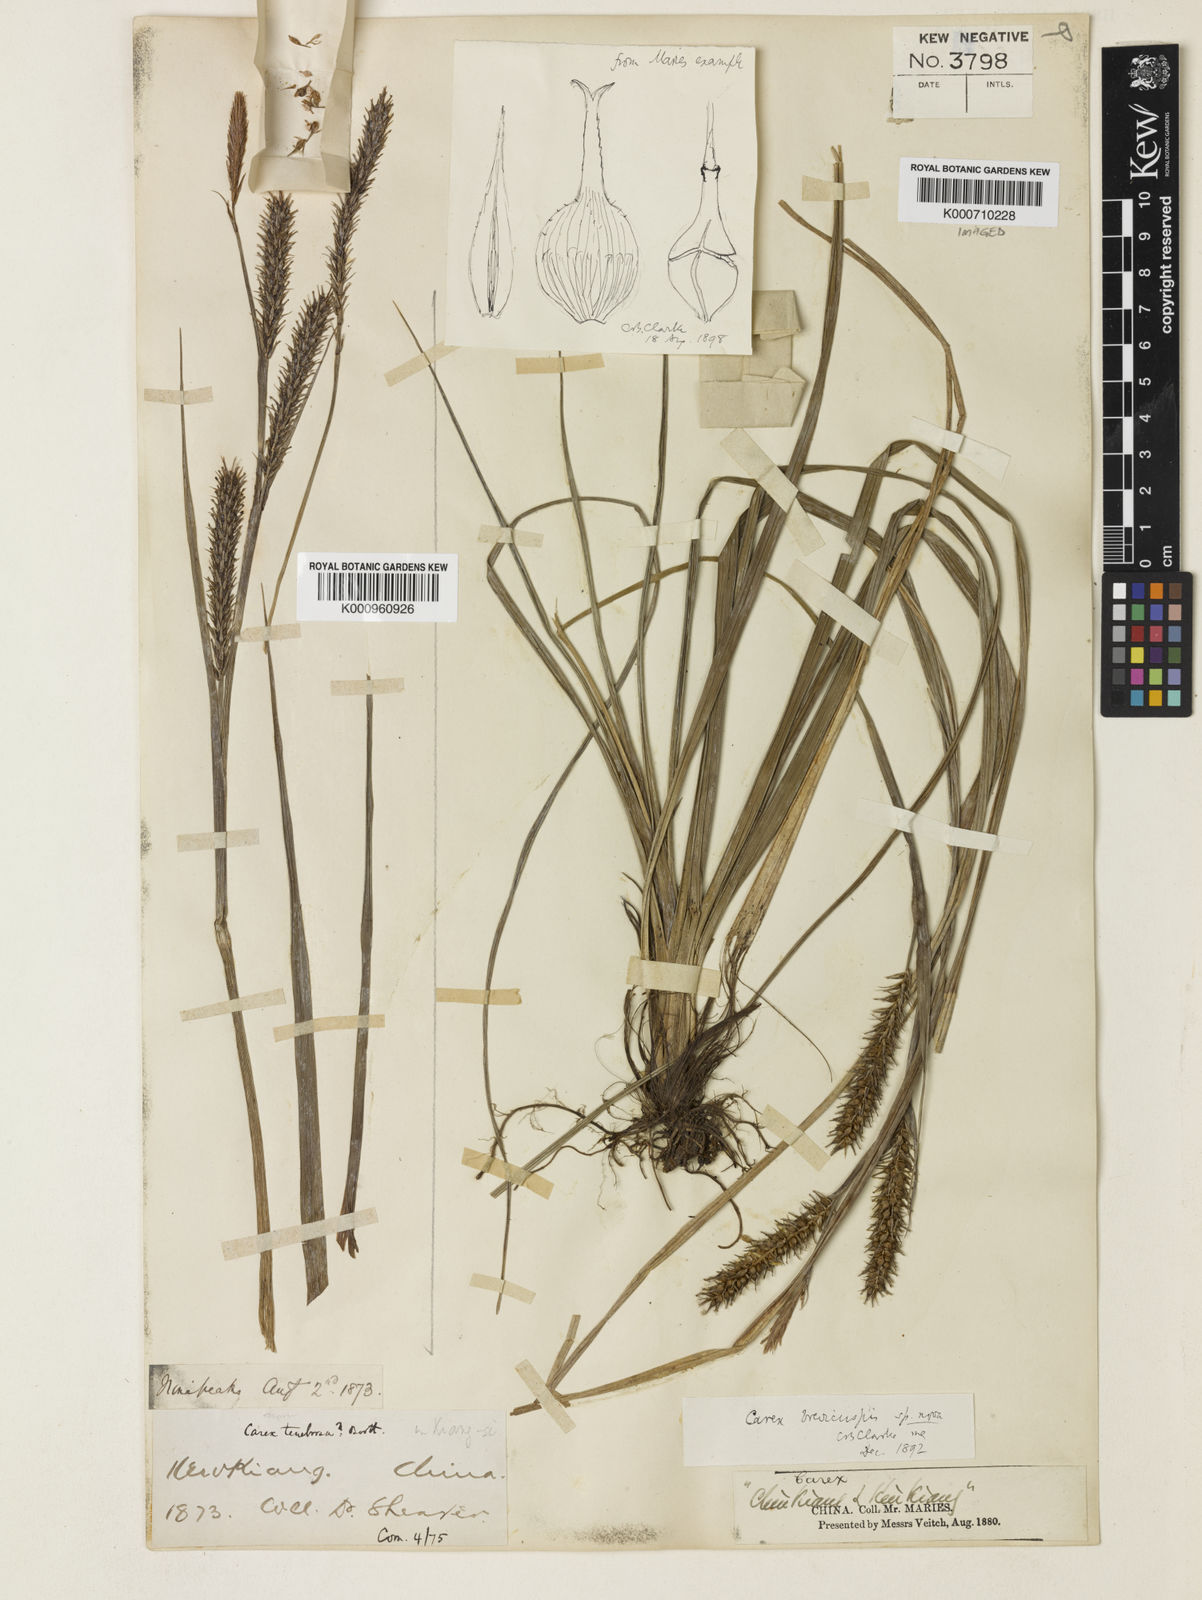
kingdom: Plantae
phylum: Tracheophyta
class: Liliopsida
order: Poales
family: Cyperaceae
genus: Carex
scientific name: Carex brevicuspis
